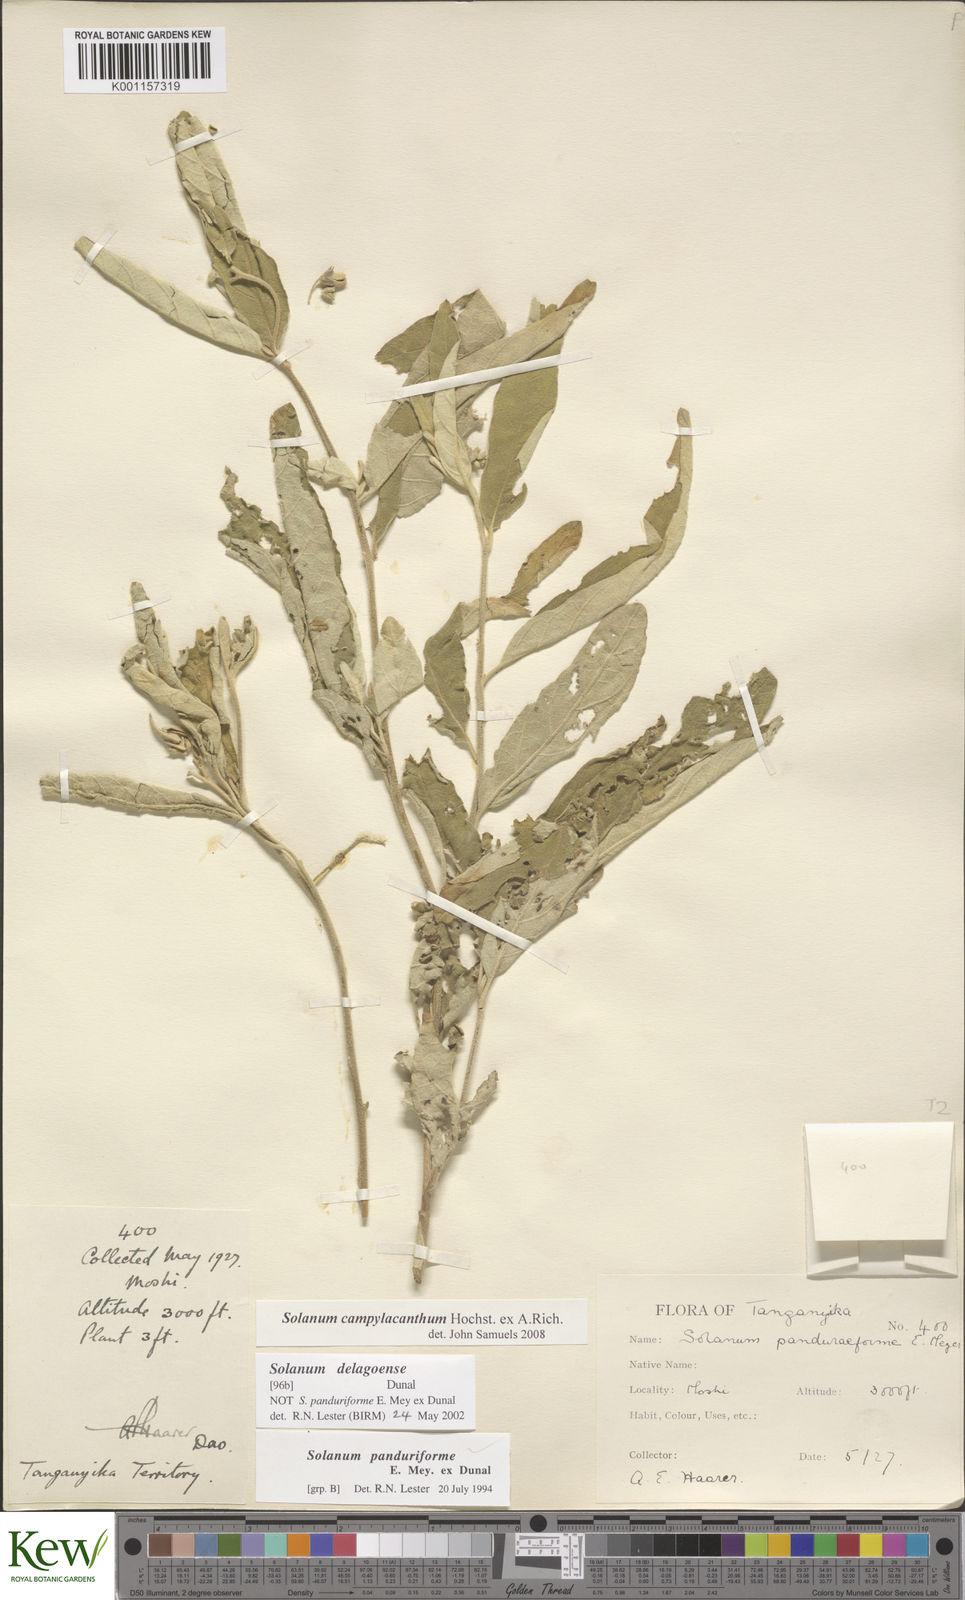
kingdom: Plantae
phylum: Tracheophyta
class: Magnoliopsida
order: Solanales
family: Solanaceae
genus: Solanum
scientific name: Solanum campylacanthum
